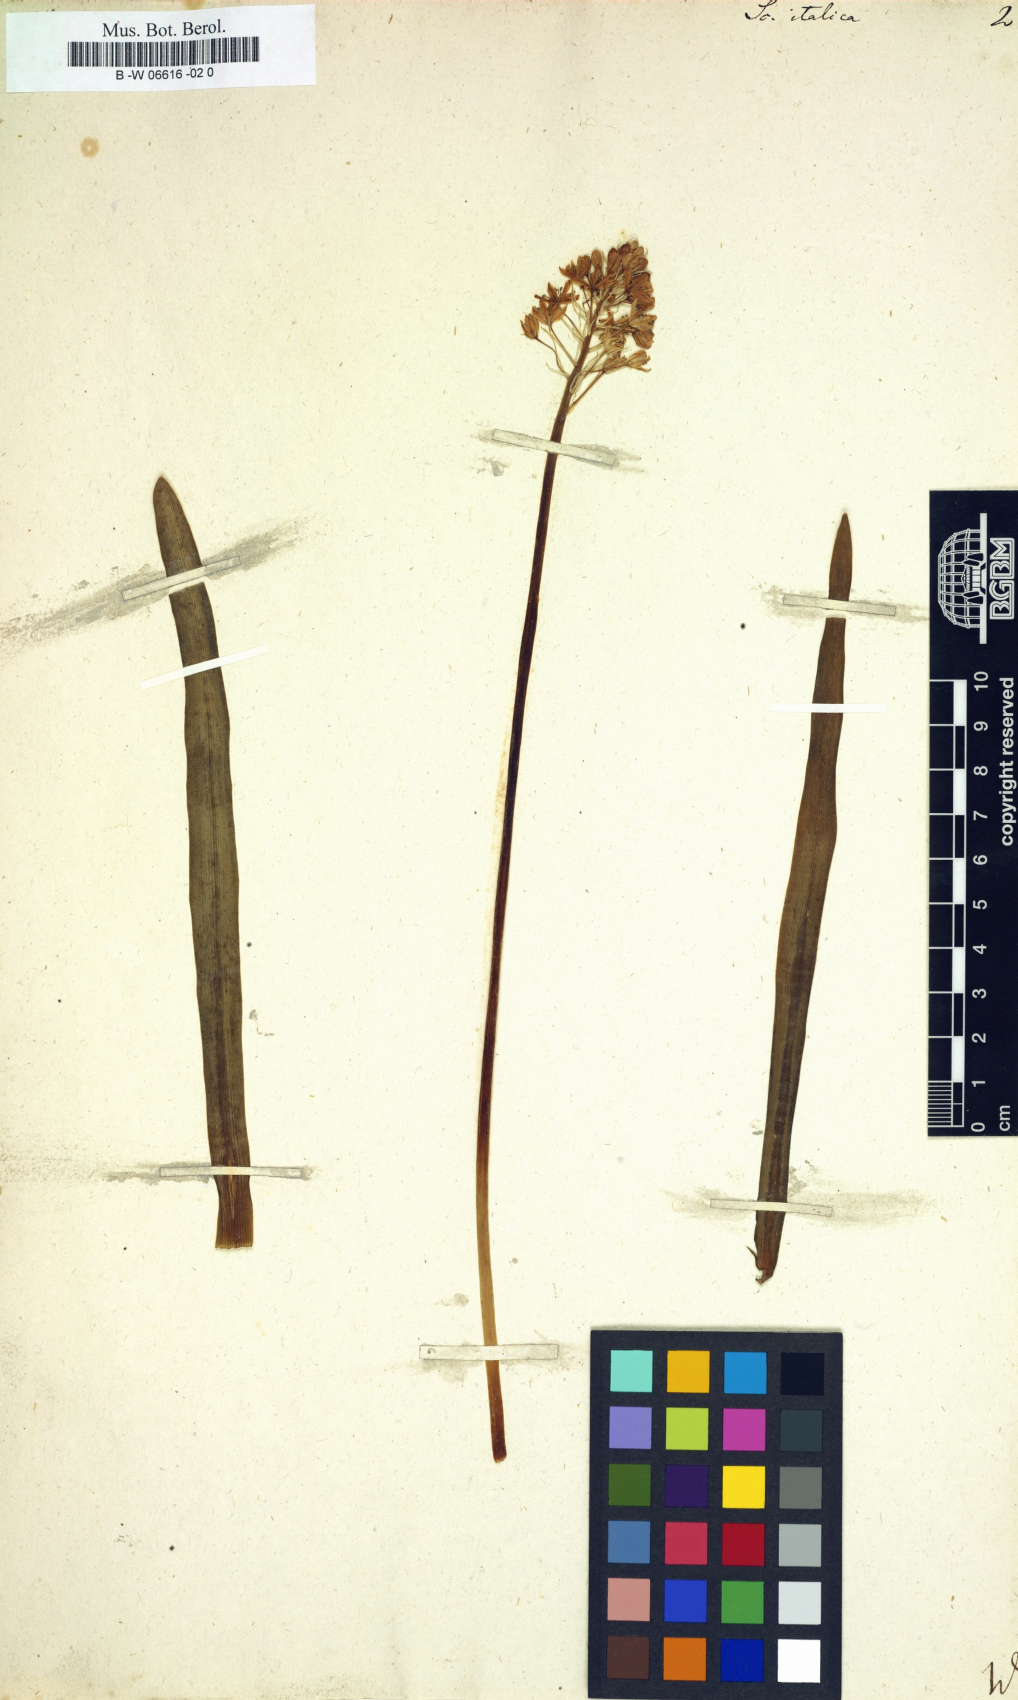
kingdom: Plantae
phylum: Tracheophyta
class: Liliopsida
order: Asparagales
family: Asparagaceae
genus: Scilla
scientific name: Scilla italica
